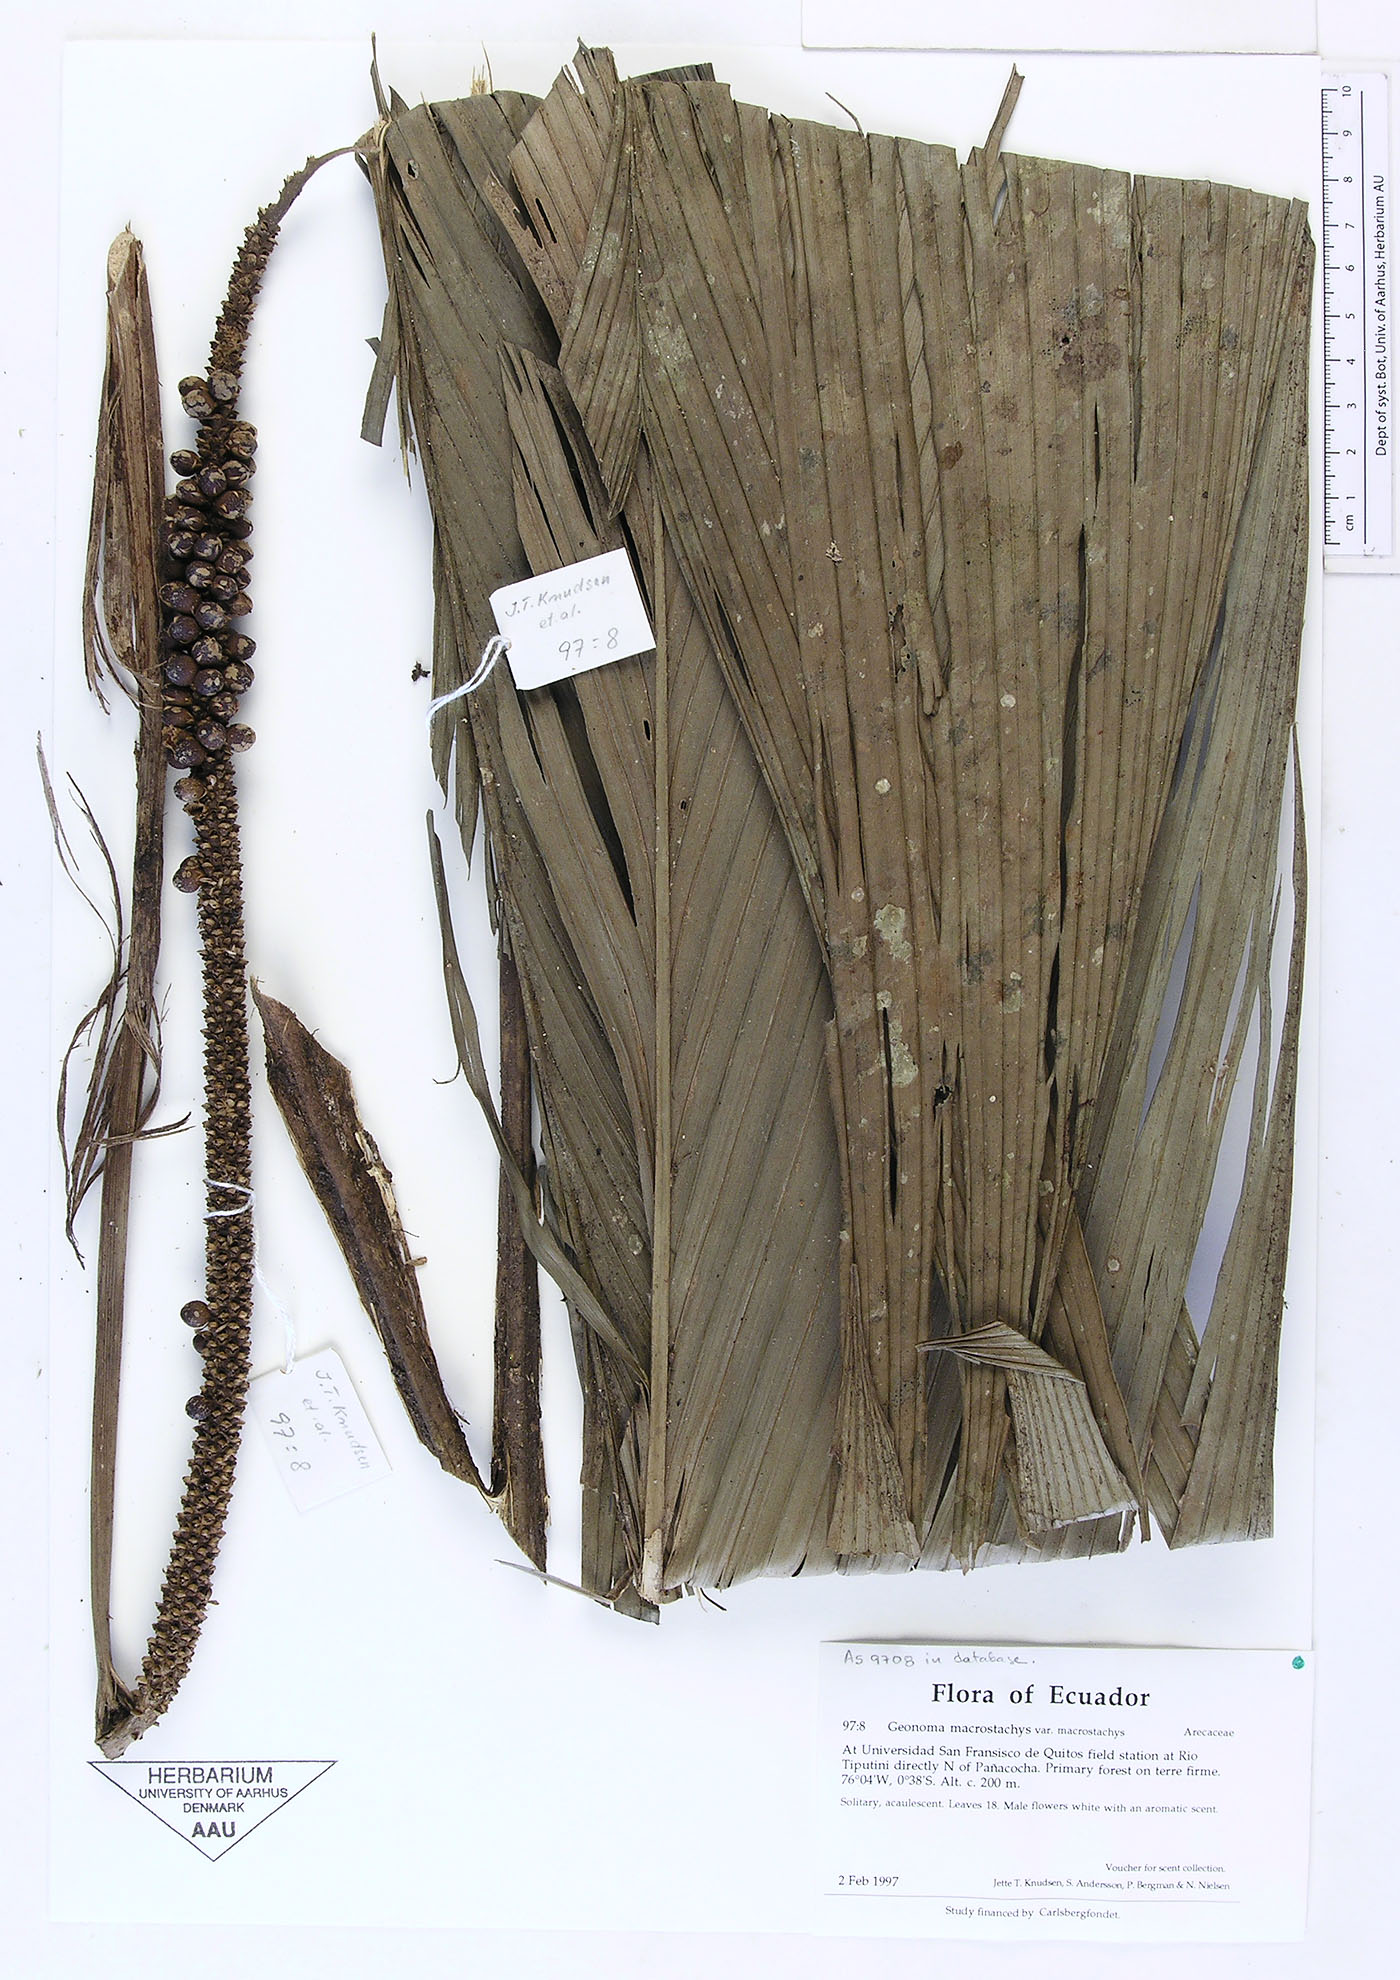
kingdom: Plantae
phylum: Tracheophyta
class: Liliopsida
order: Arecales
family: Arecaceae
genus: Geonoma
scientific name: Geonoma macrostachys
